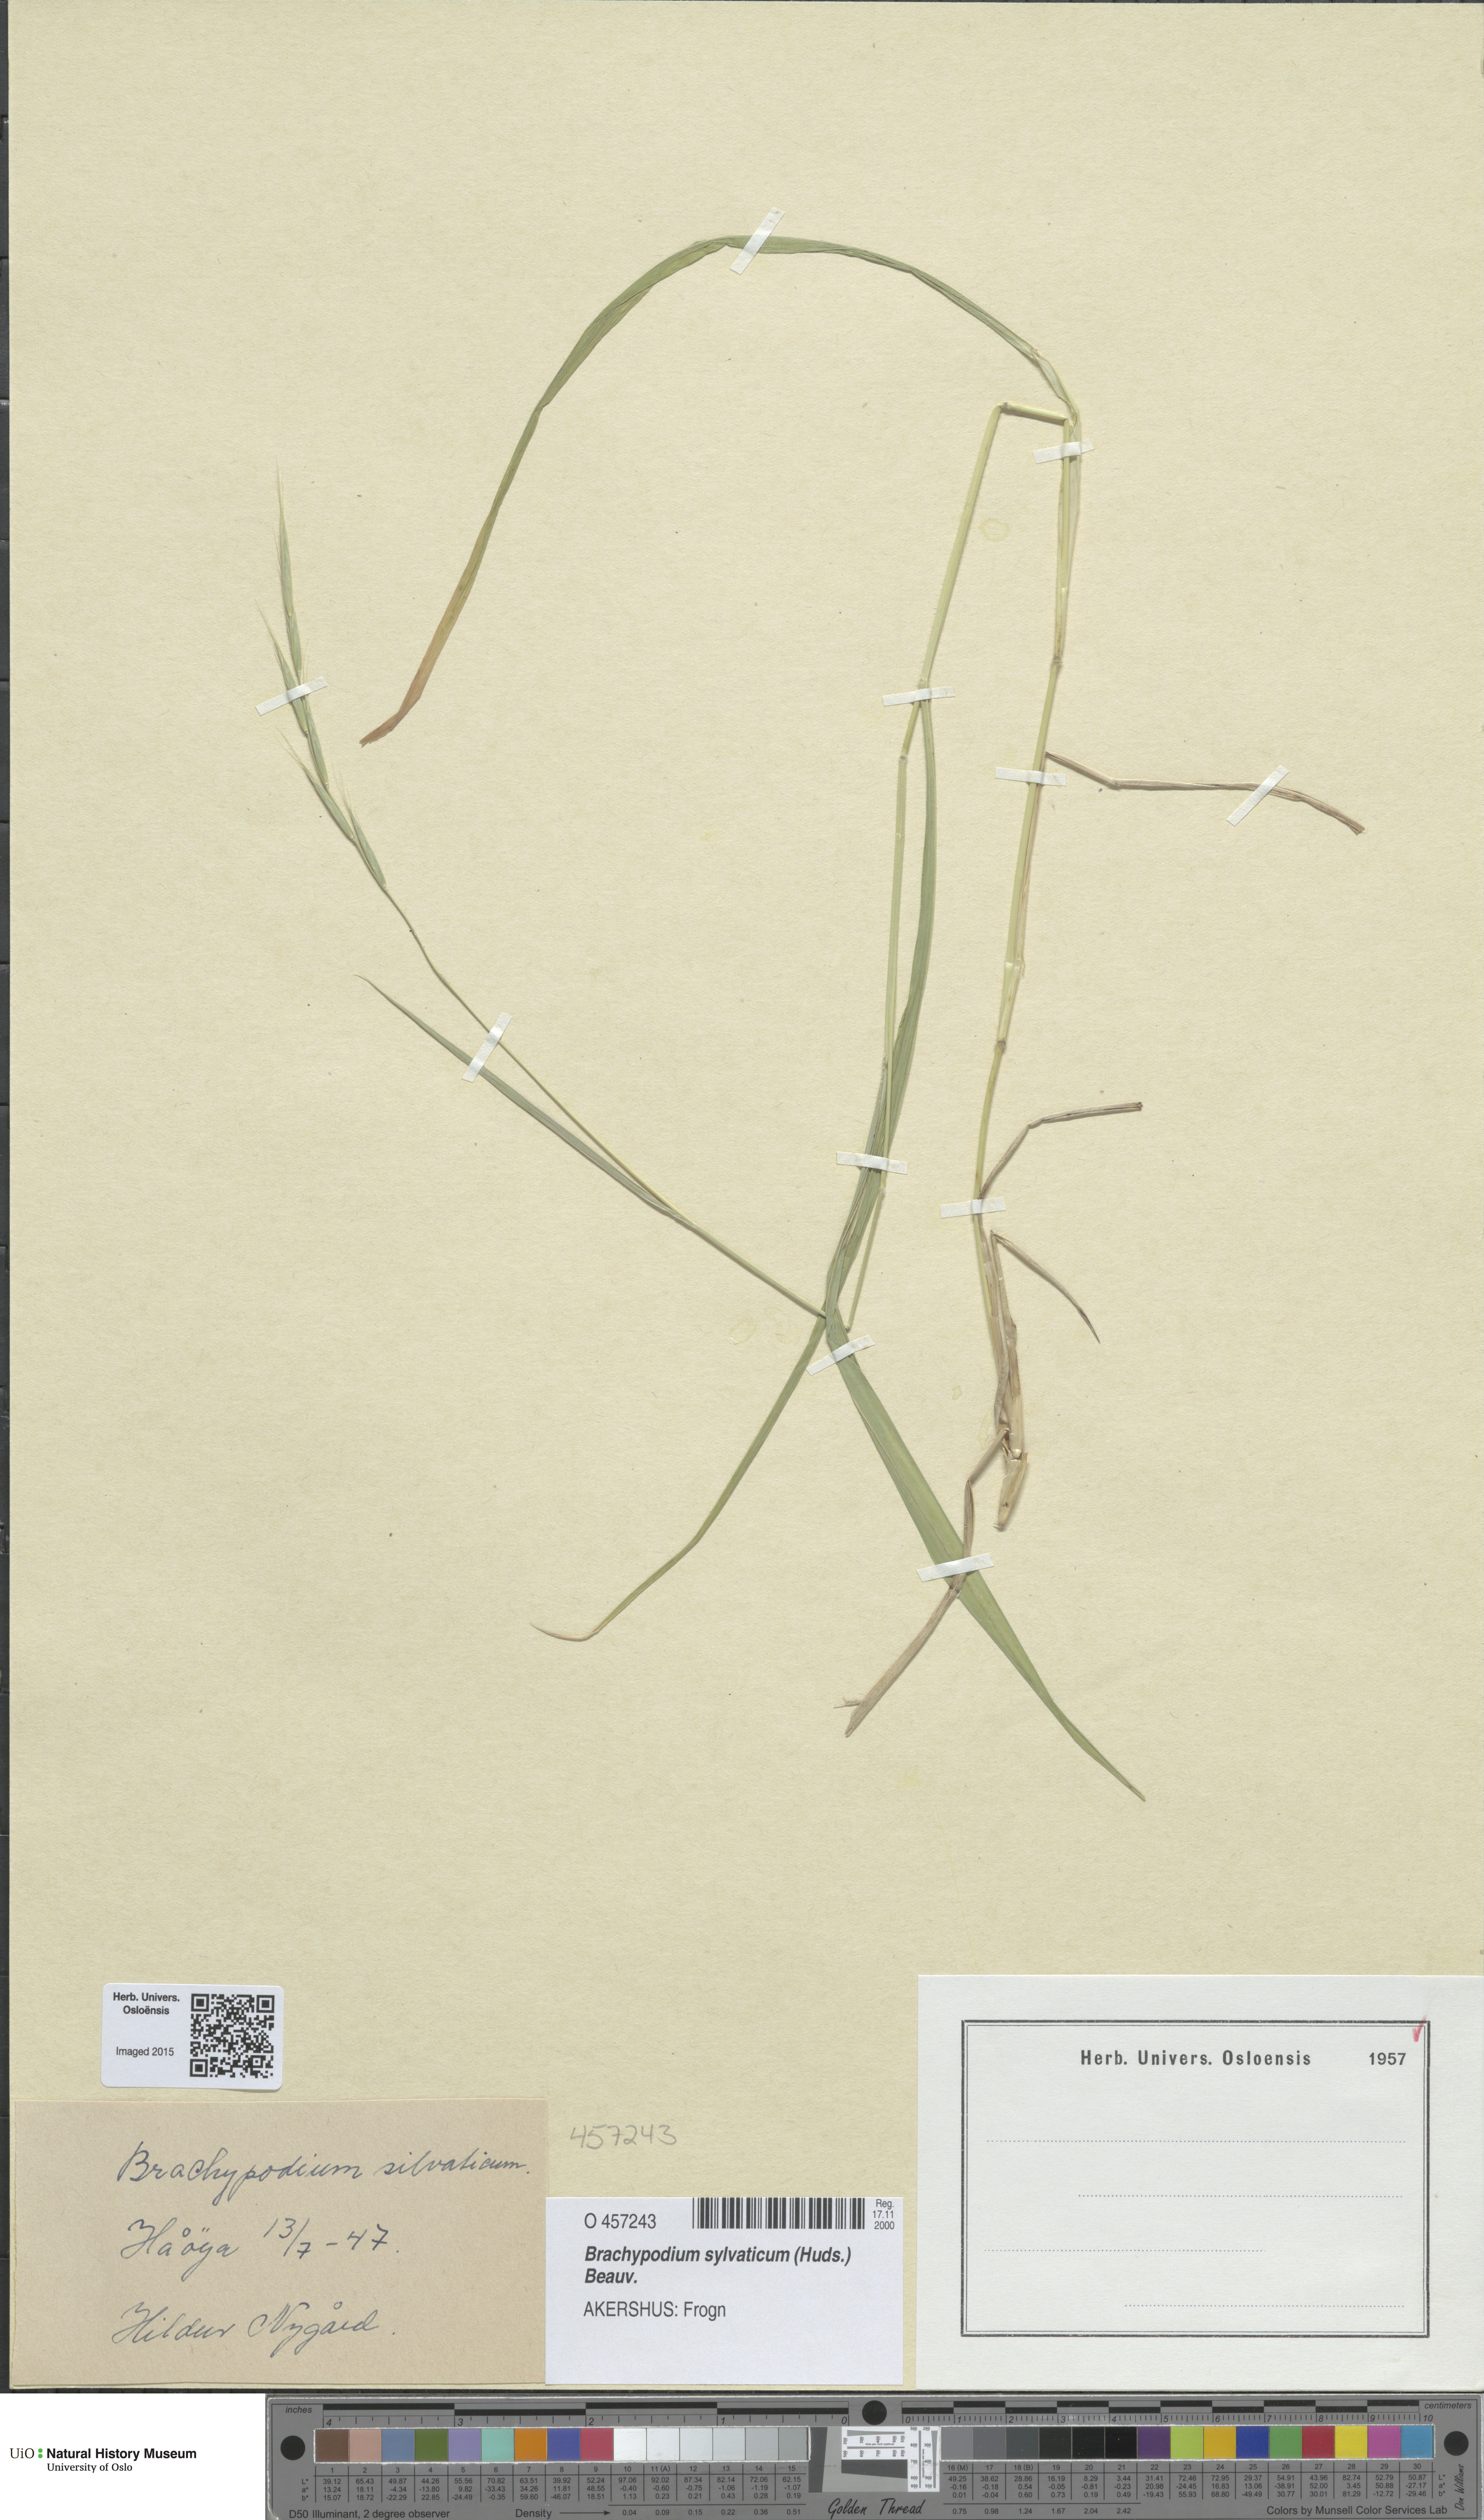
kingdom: Plantae
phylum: Tracheophyta
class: Liliopsida
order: Poales
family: Poaceae
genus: Brachypodium
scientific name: Brachypodium sylvaticum
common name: False-brome
